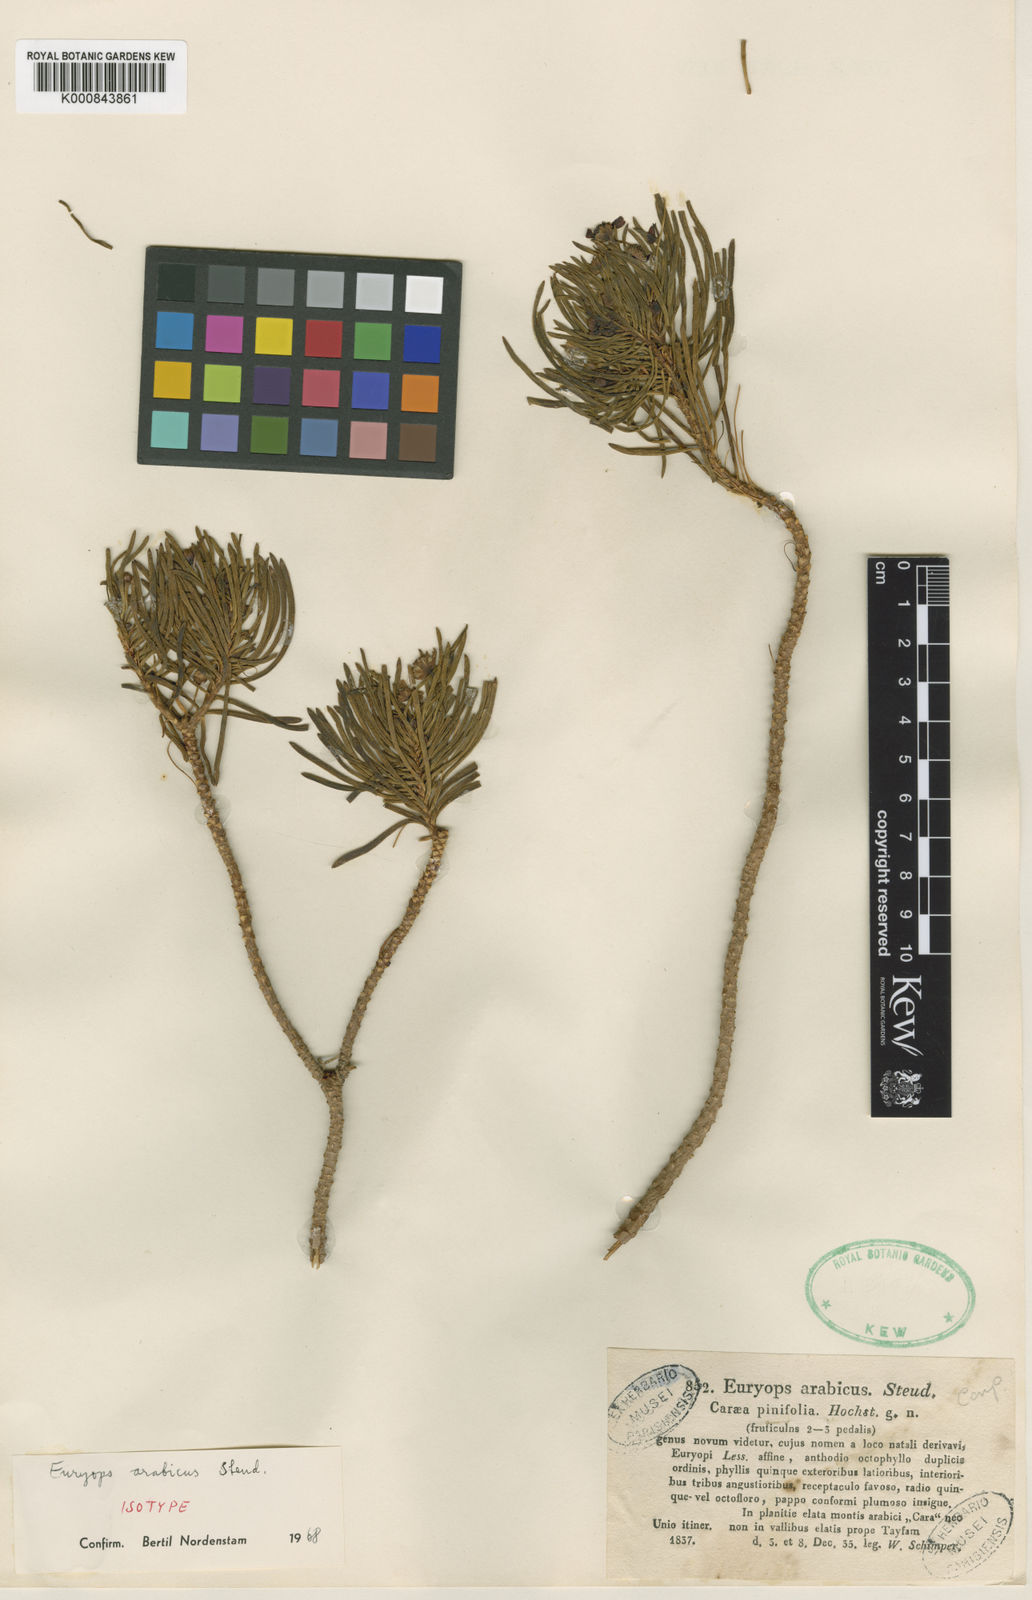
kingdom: Plantae
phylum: Tracheophyta
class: Magnoliopsida
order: Asterales
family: Asteraceae
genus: Euryops
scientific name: Euryops
